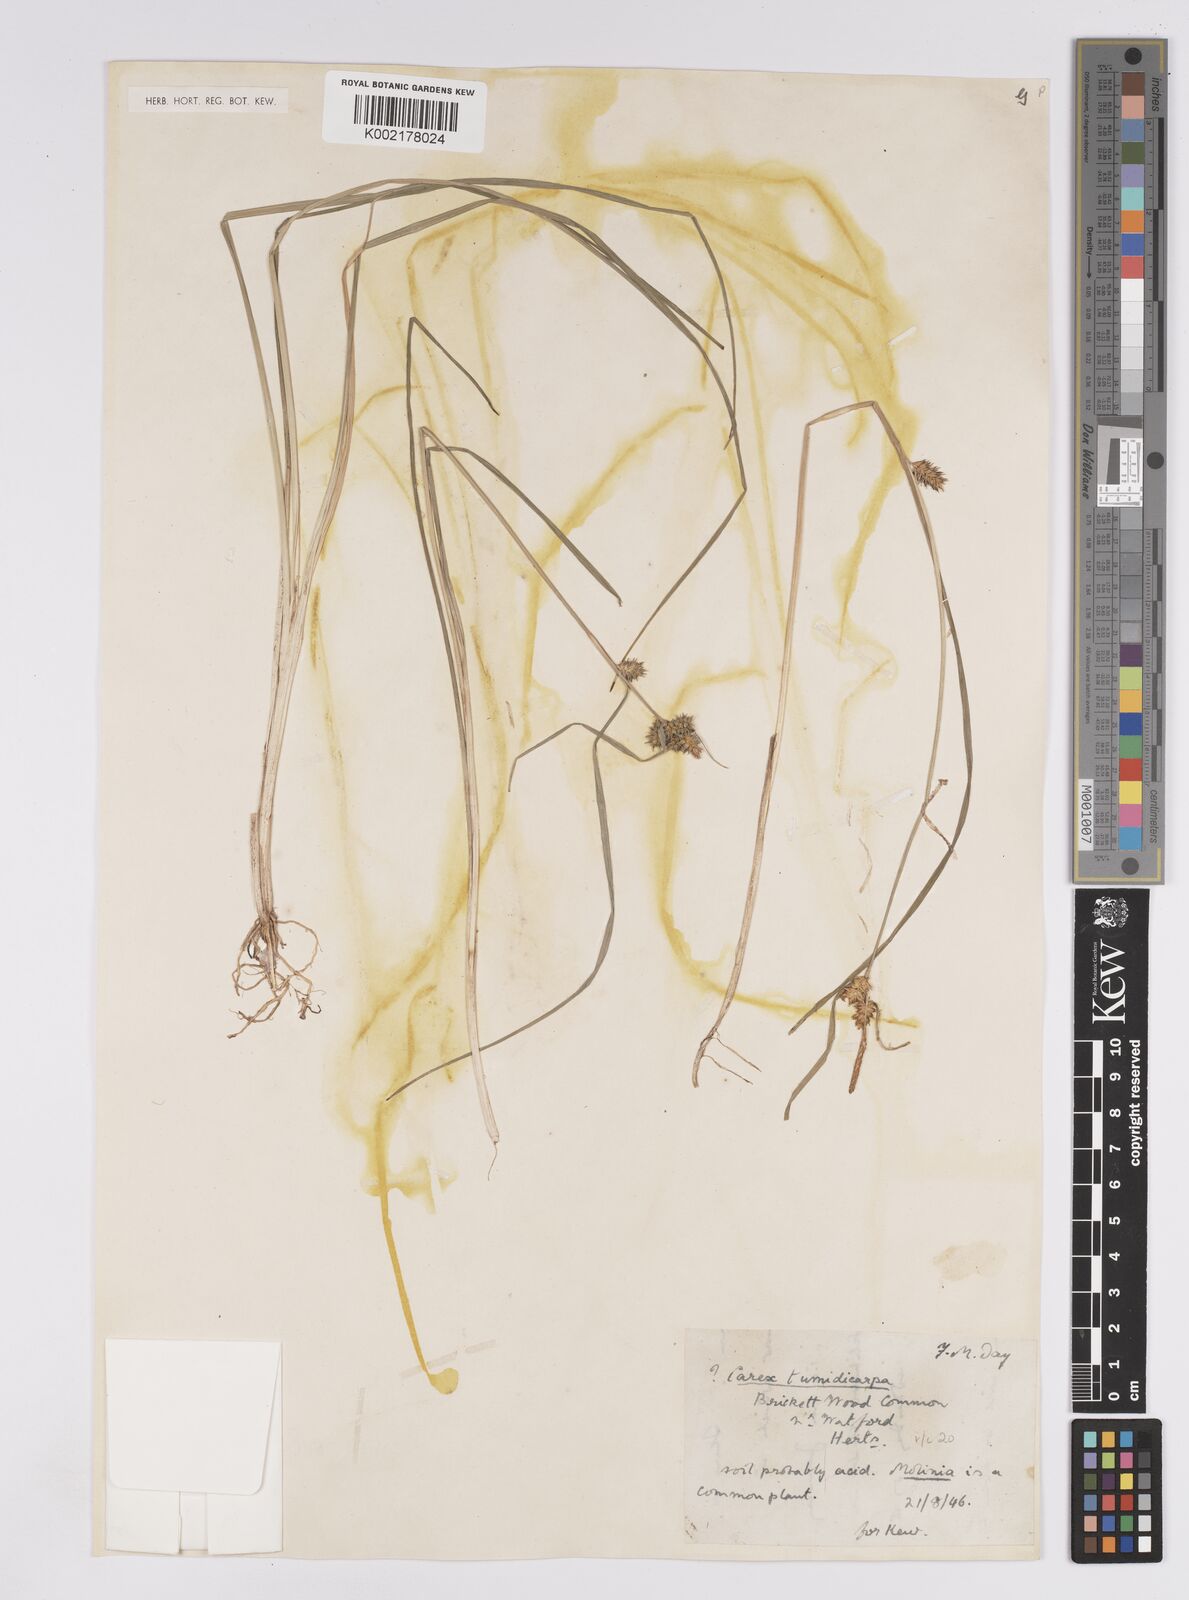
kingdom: Plantae
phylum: Tracheophyta
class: Liliopsida
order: Poales
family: Cyperaceae
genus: Carex
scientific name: Carex demissa
